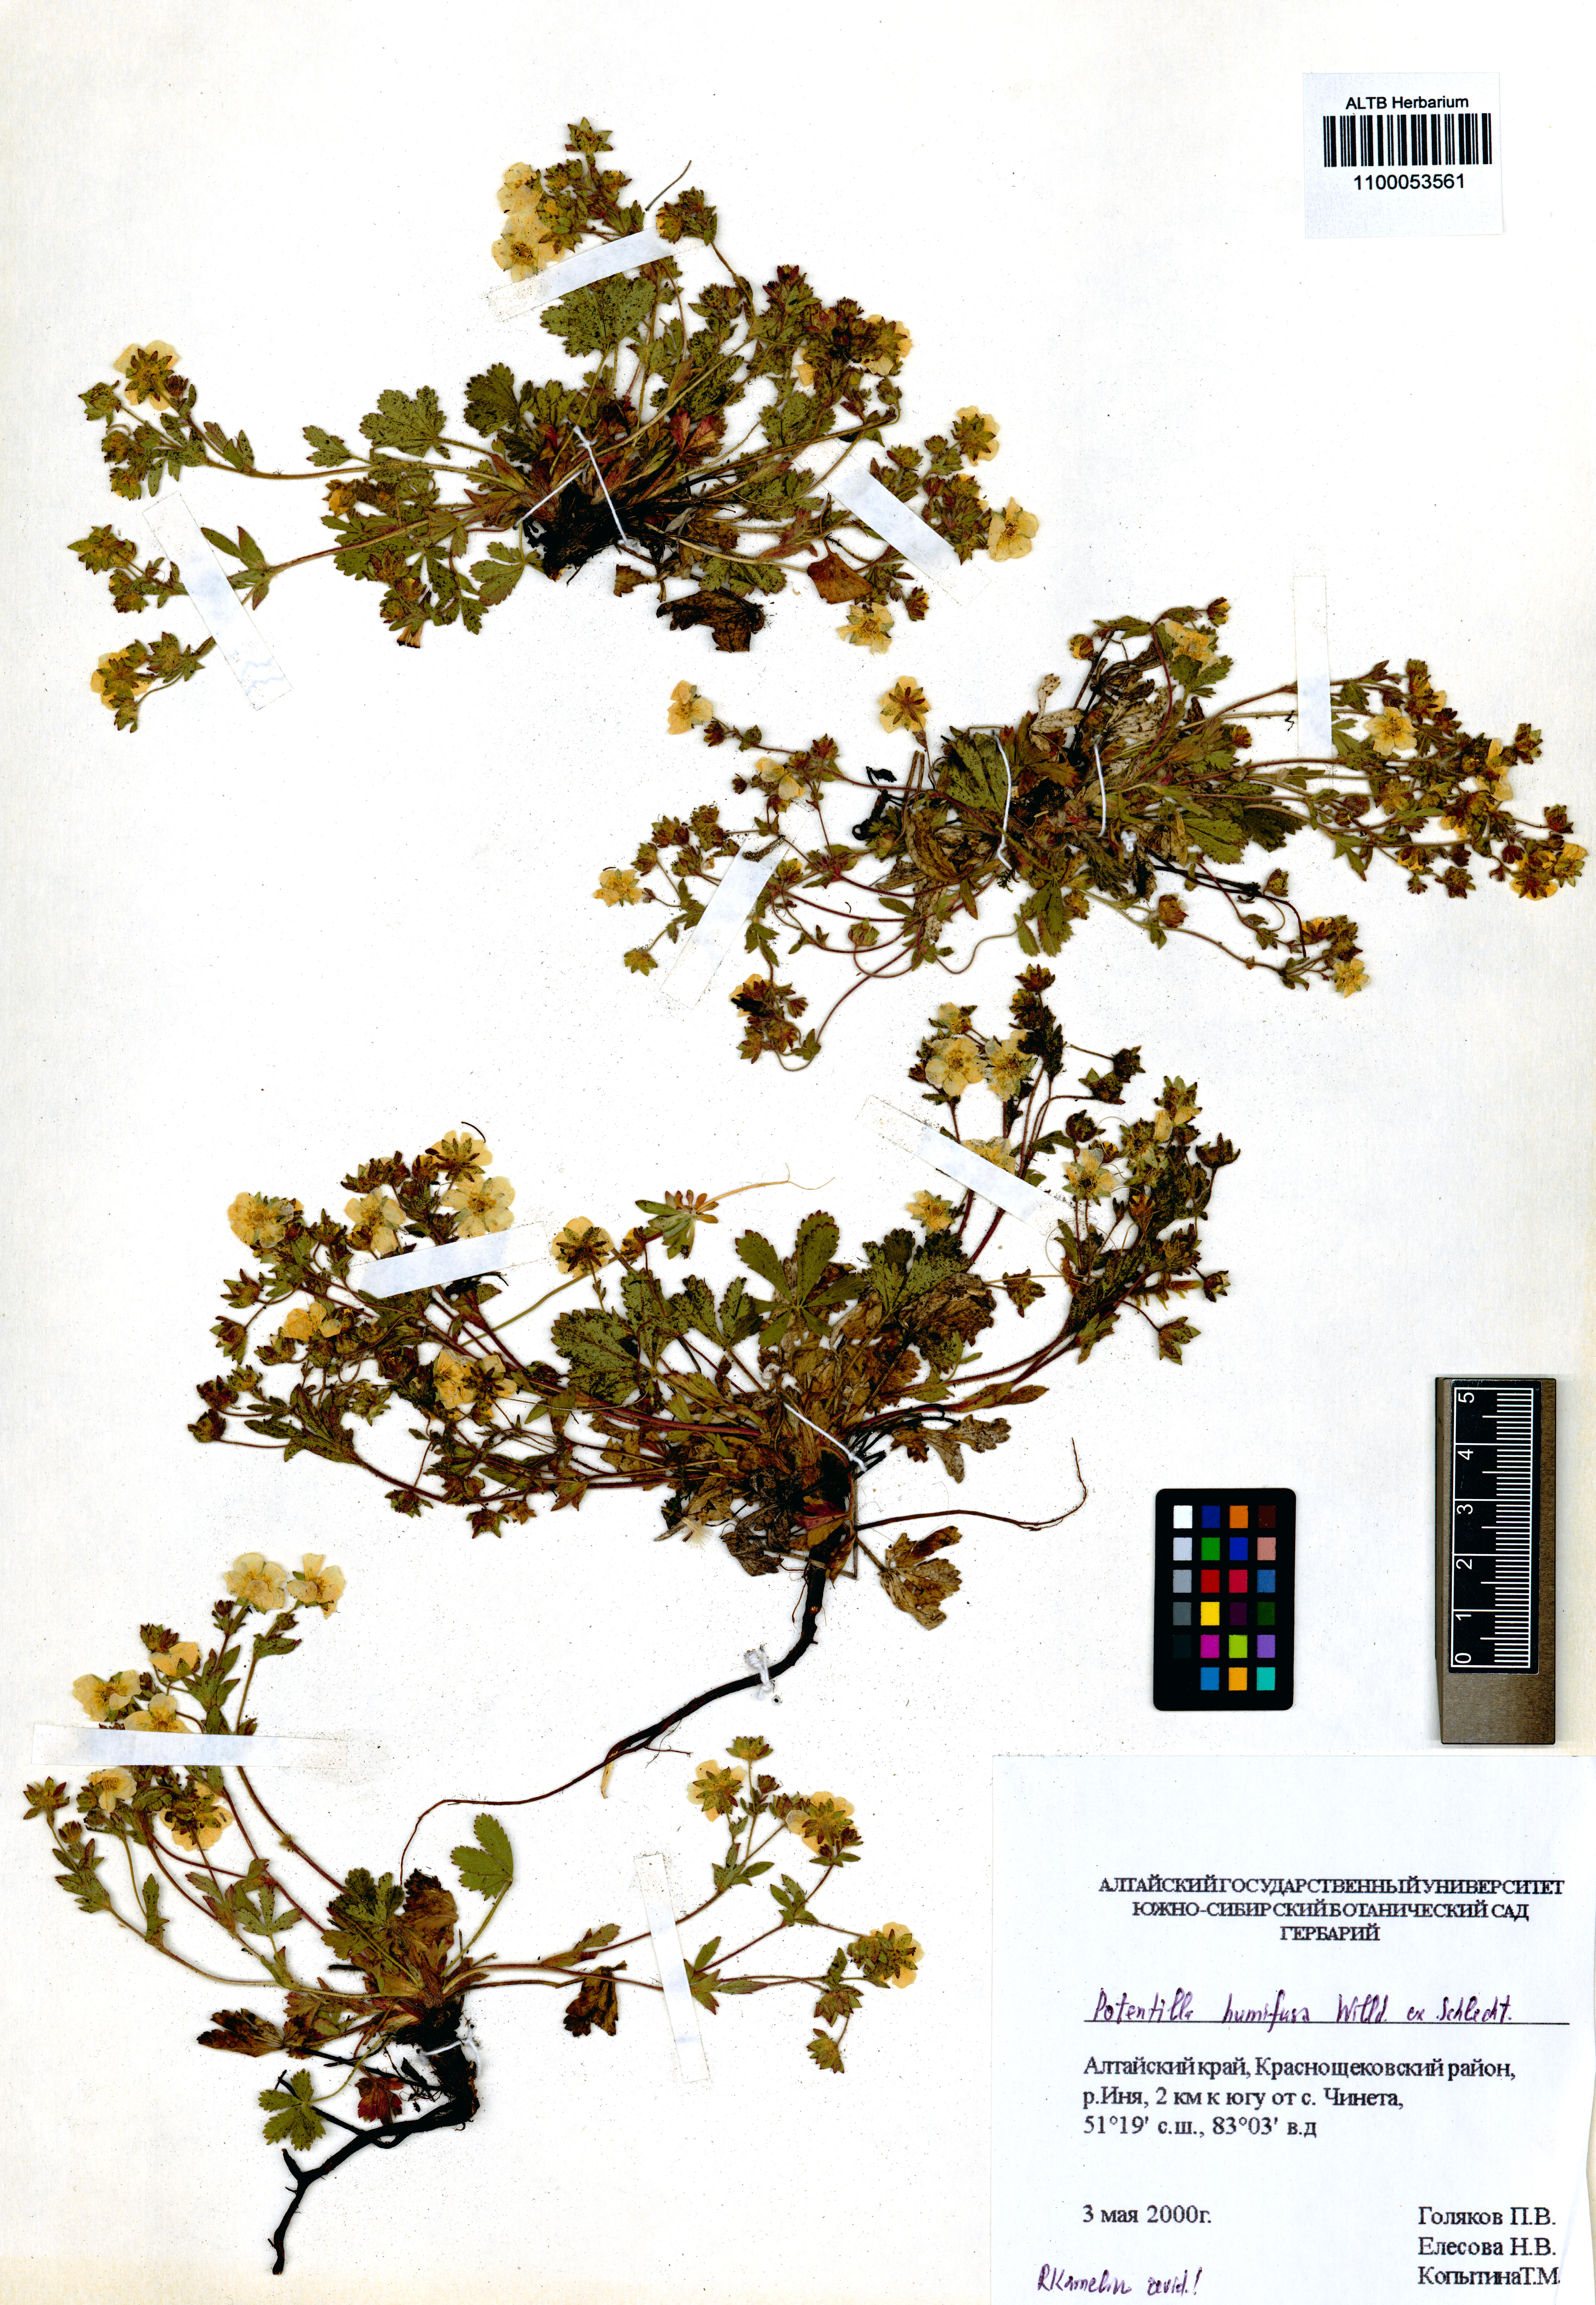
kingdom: Plantae
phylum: Tracheophyta
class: Magnoliopsida
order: Rosales
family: Rosaceae
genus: Potentilla
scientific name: Potentilla humifusa
